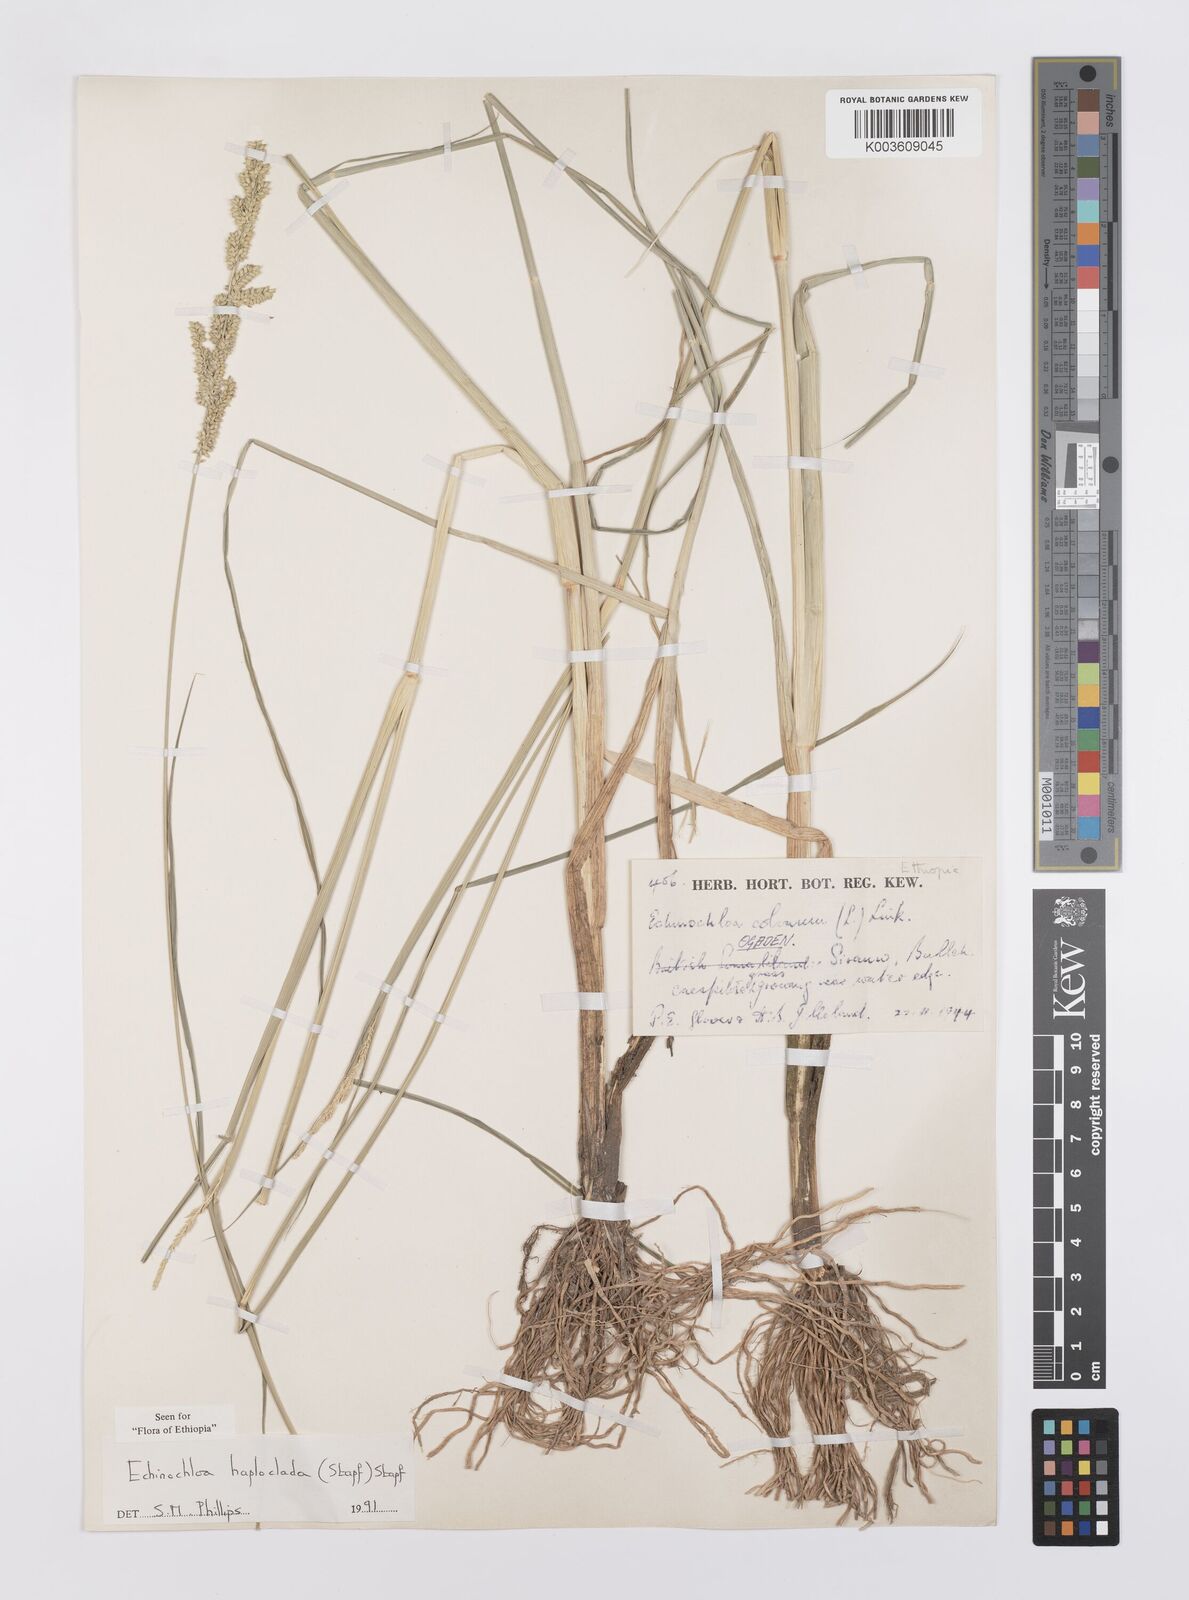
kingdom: Plantae
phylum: Tracheophyta
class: Liliopsida
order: Poales
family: Poaceae
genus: Echinochloa
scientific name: Echinochloa haploclada
